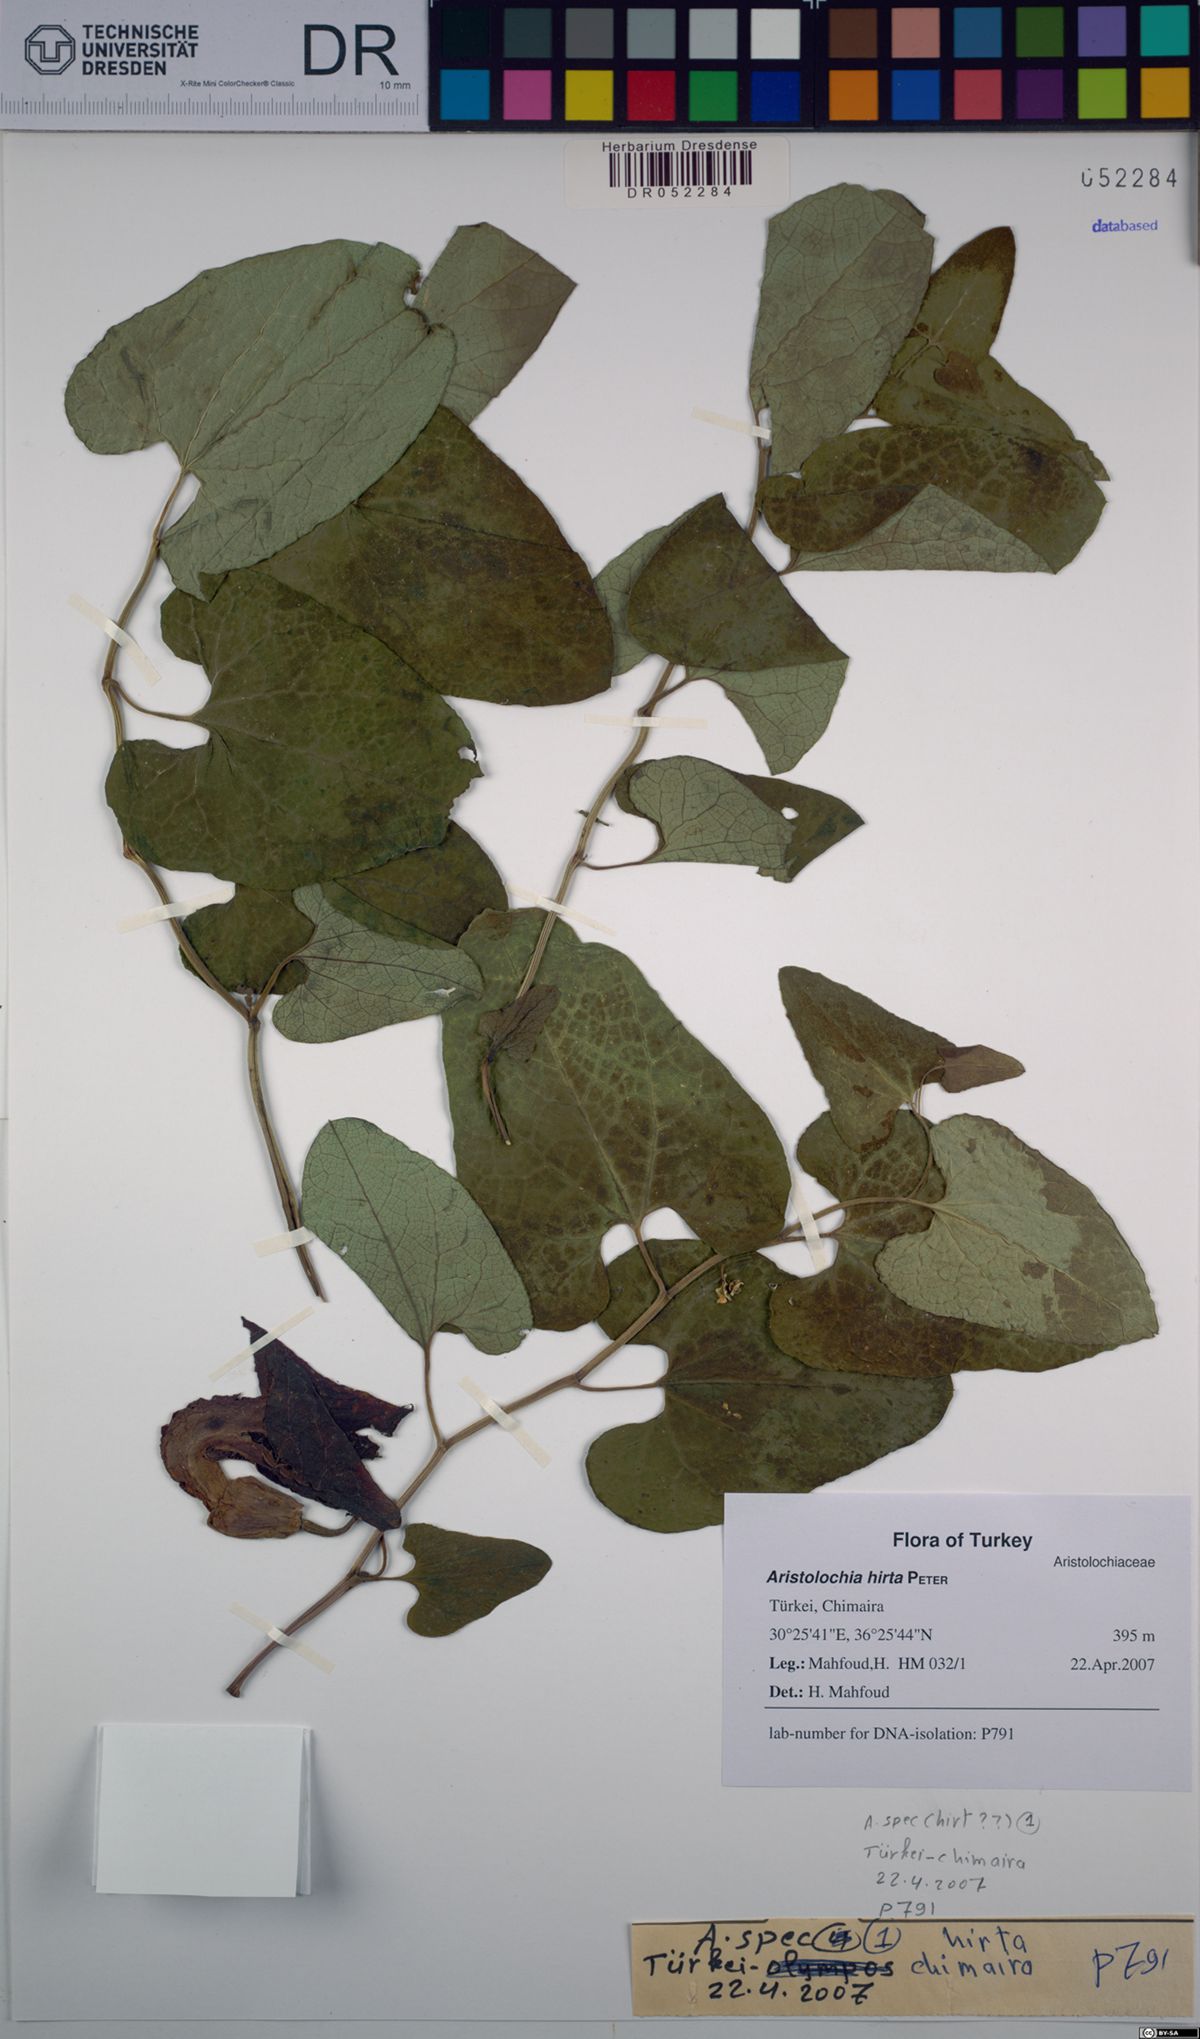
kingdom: Plantae
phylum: Tracheophyta
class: Magnoliopsida
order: Piperales
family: Aristolochiaceae
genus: Aristolochia
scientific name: Aristolochia hockii
